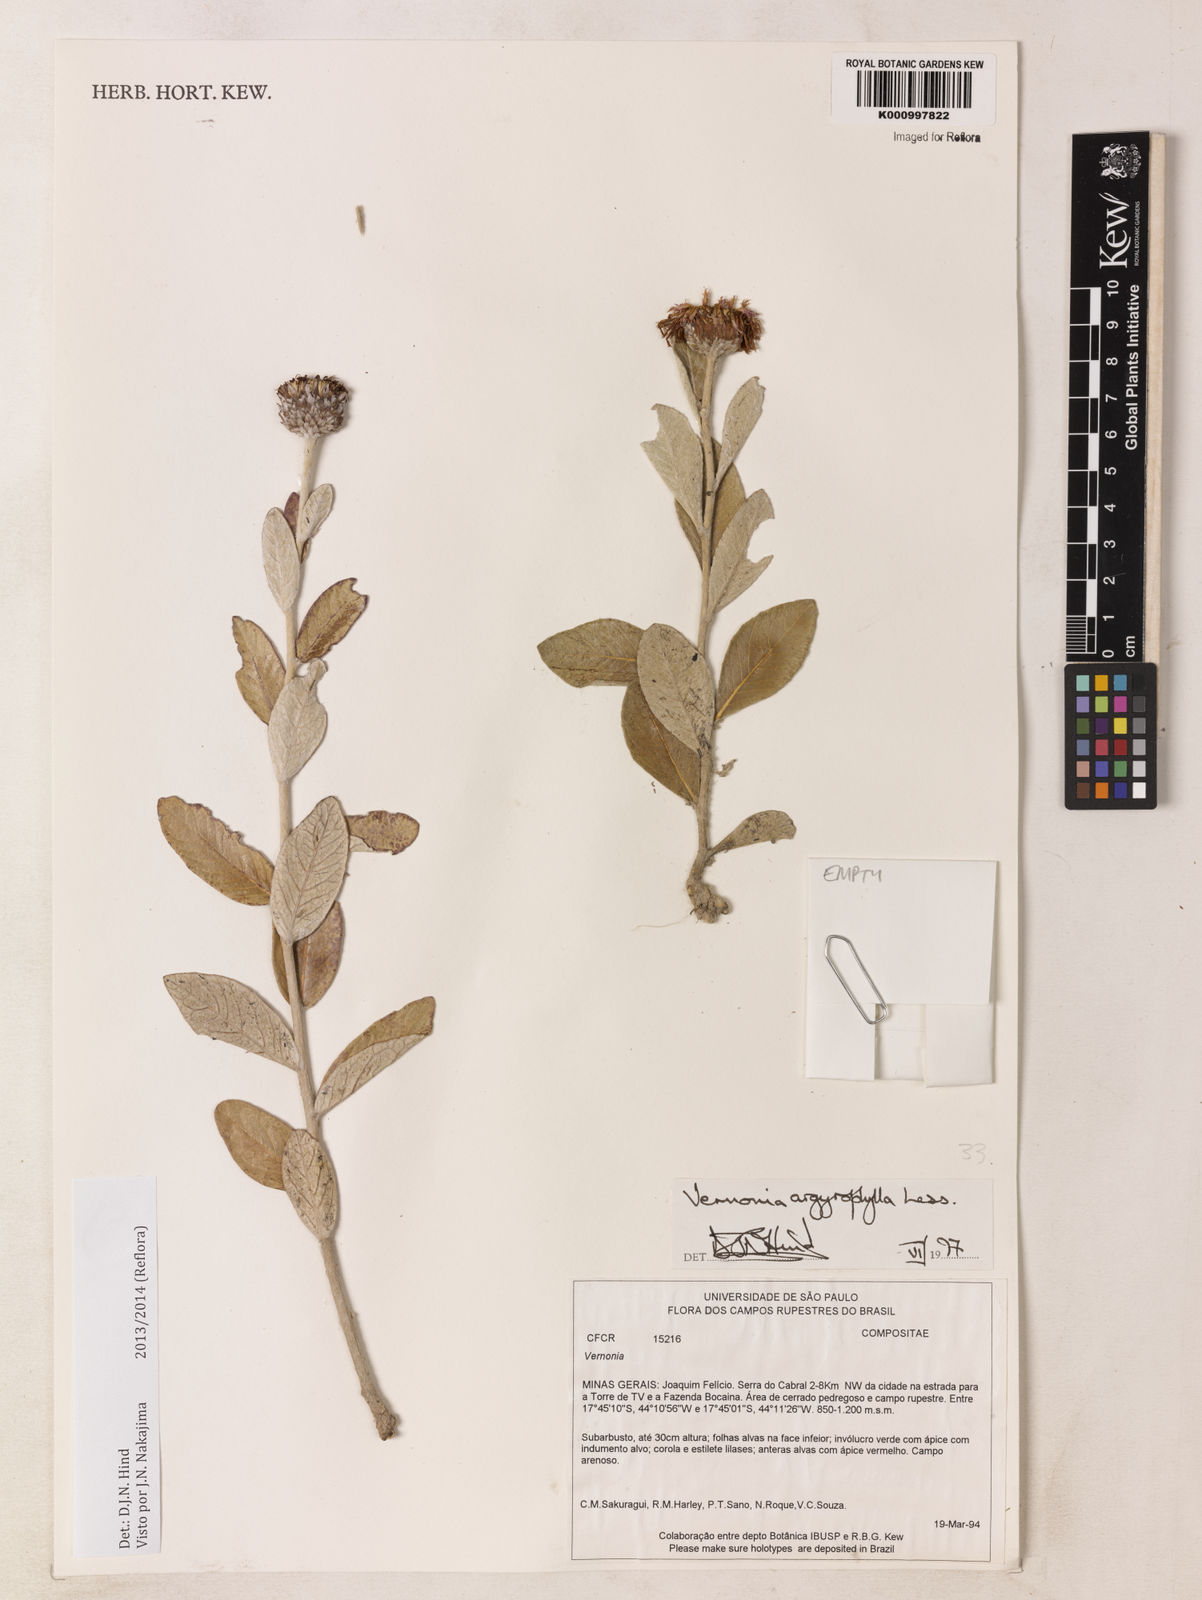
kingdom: Plantae
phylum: Tracheophyta
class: Magnoliopsida
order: Asterales
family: Asteraceae
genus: Lessingianthus
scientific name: Lessingianthus argyrophyllus
